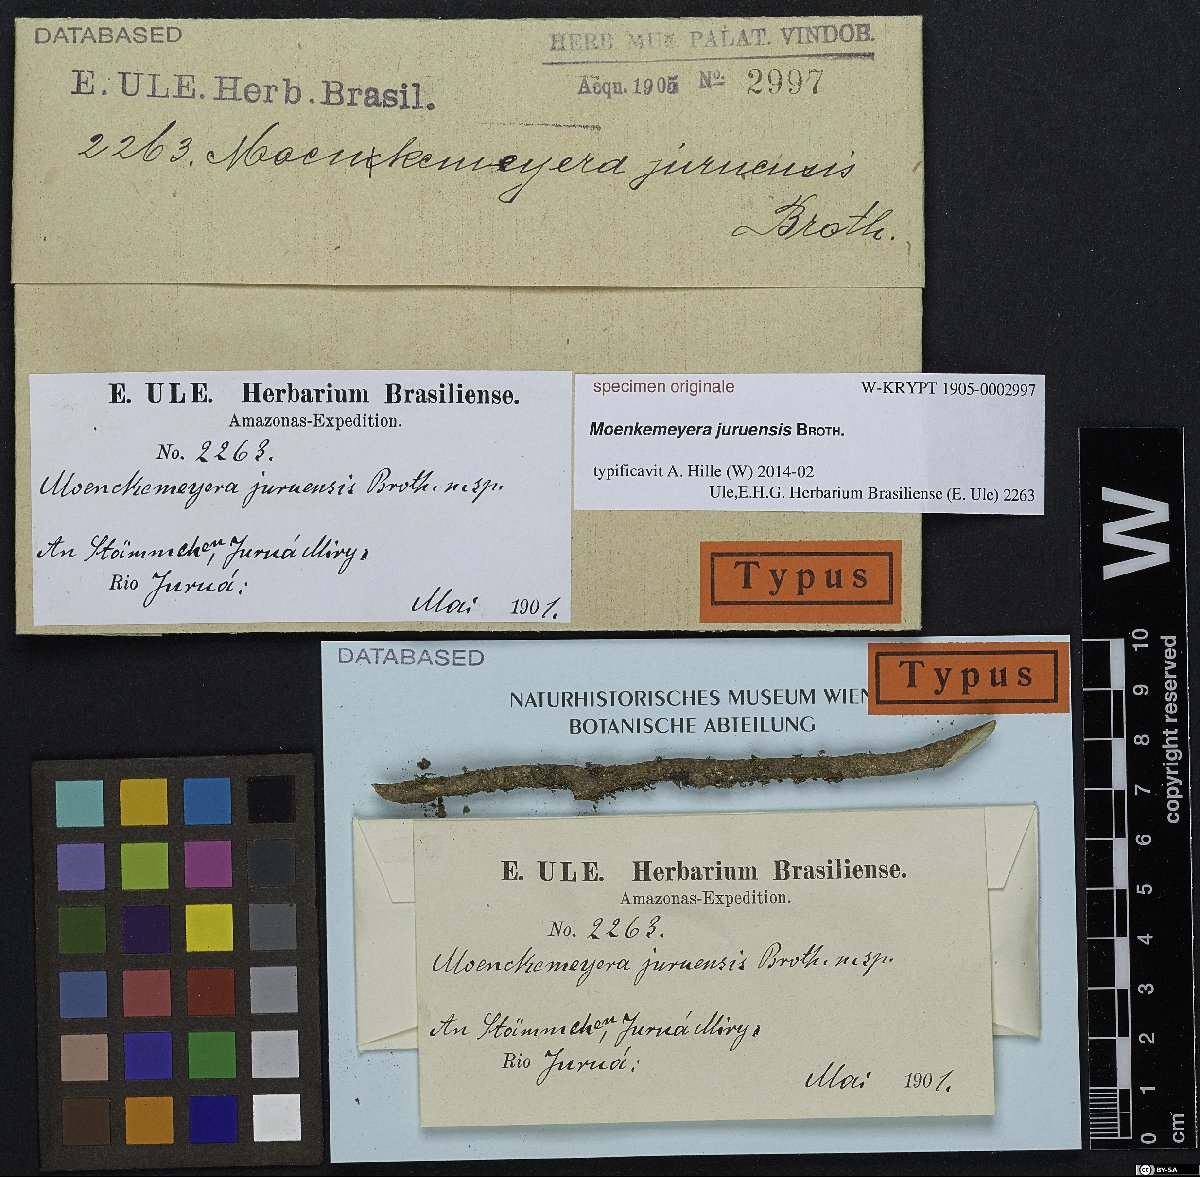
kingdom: Plantae
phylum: Bryophyta
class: Bryopsida
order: Dicranales
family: Fissidentaceae
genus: Fissidens
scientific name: Fissidens
